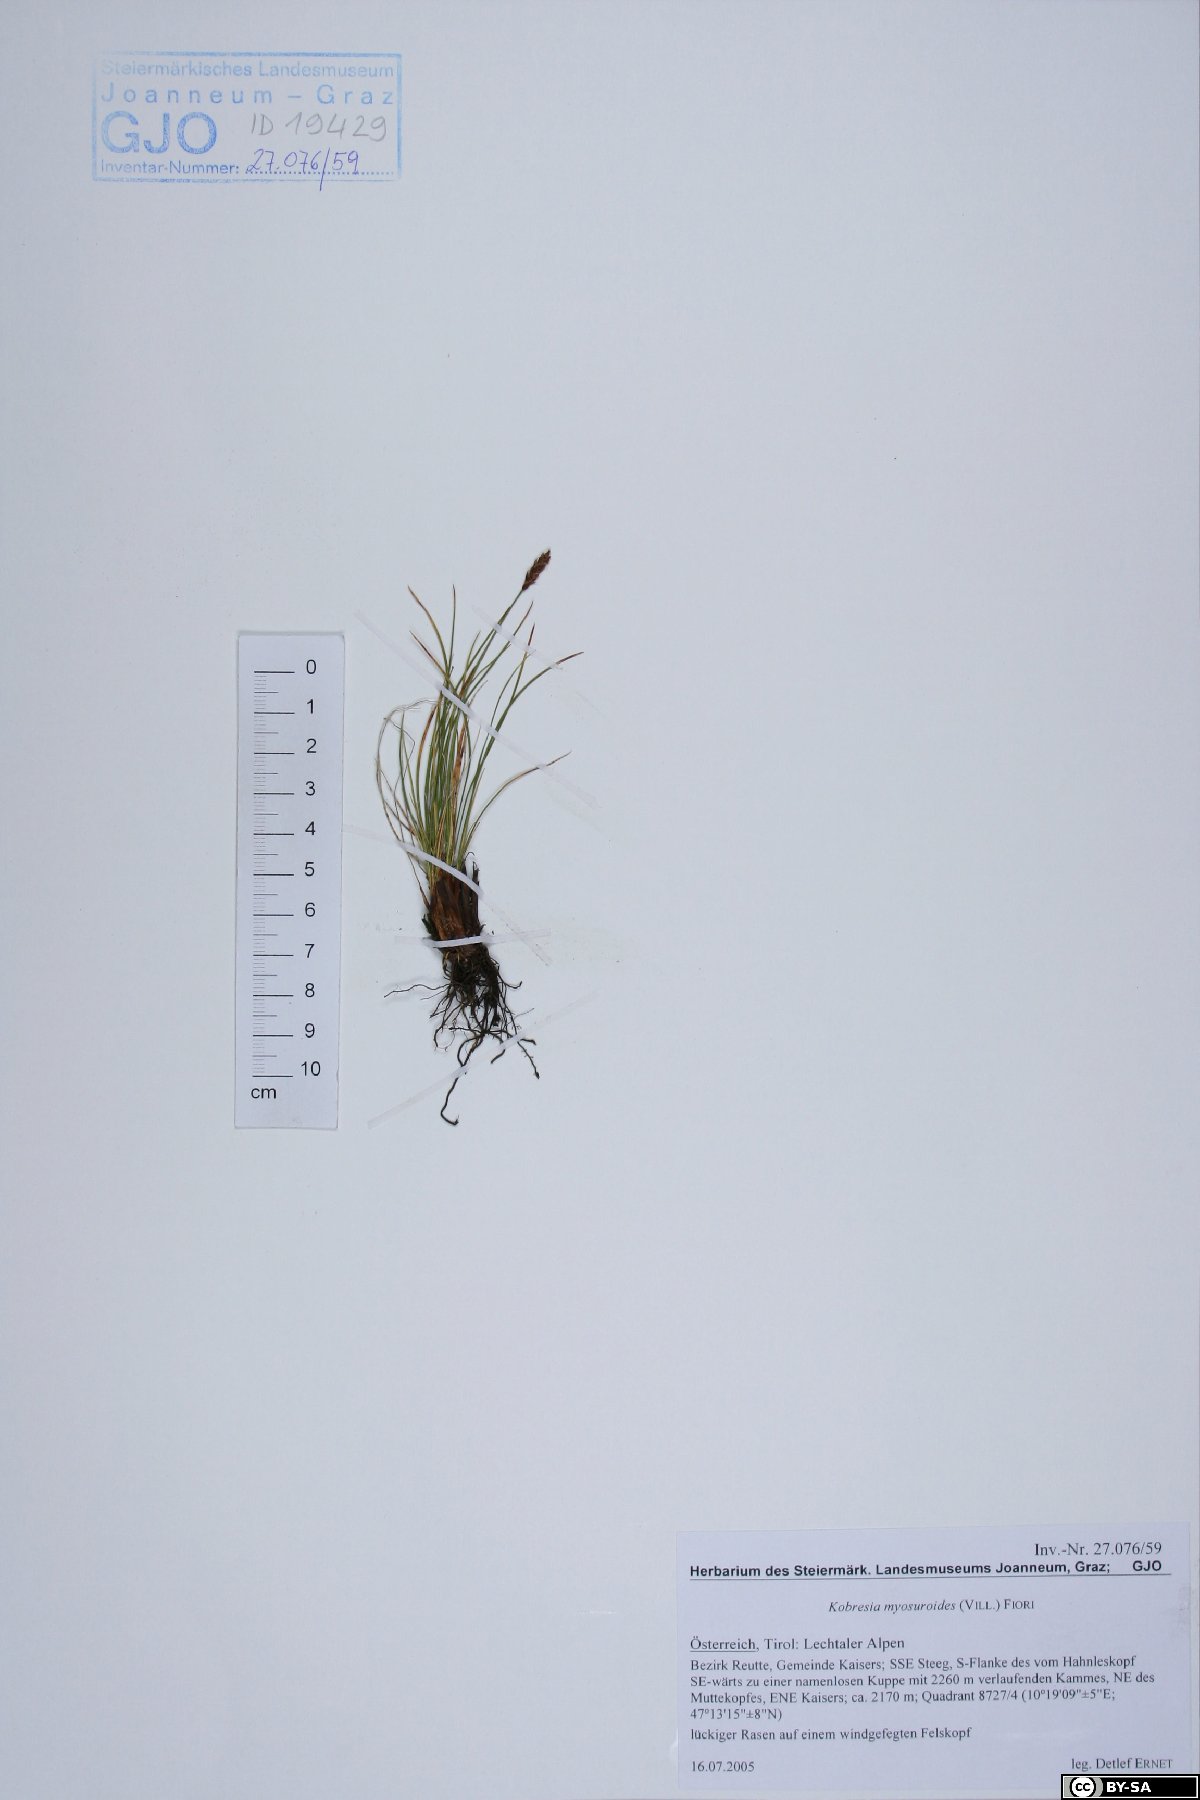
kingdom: Plantae
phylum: Tracheophyta
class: Liliopsida
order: Poales
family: Cyperaceae
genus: Carex
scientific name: Carex myosuroides
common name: Bellard's bog sedge
